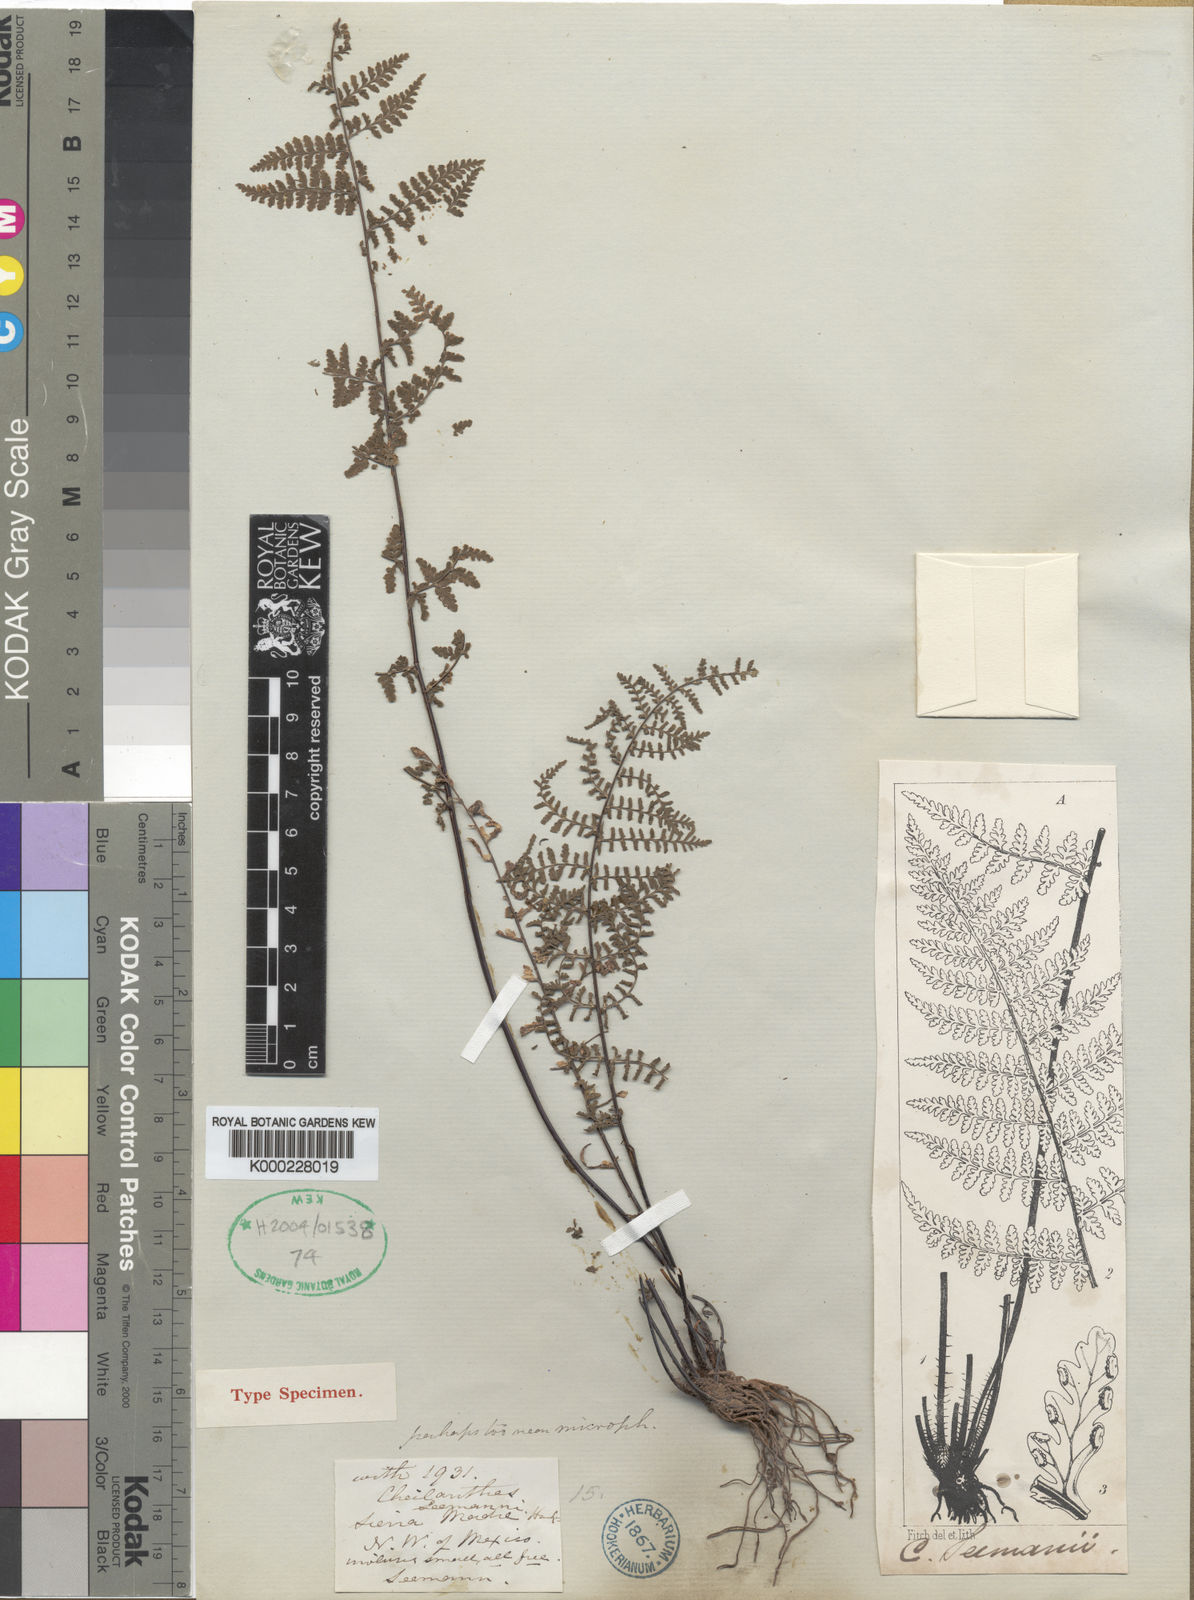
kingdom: Plantae
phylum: Tracheophyta
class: Polypodiopsida
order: Polypodiales
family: Pteridaceae
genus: Adiantopsis
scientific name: Adiantopsis seemannii
